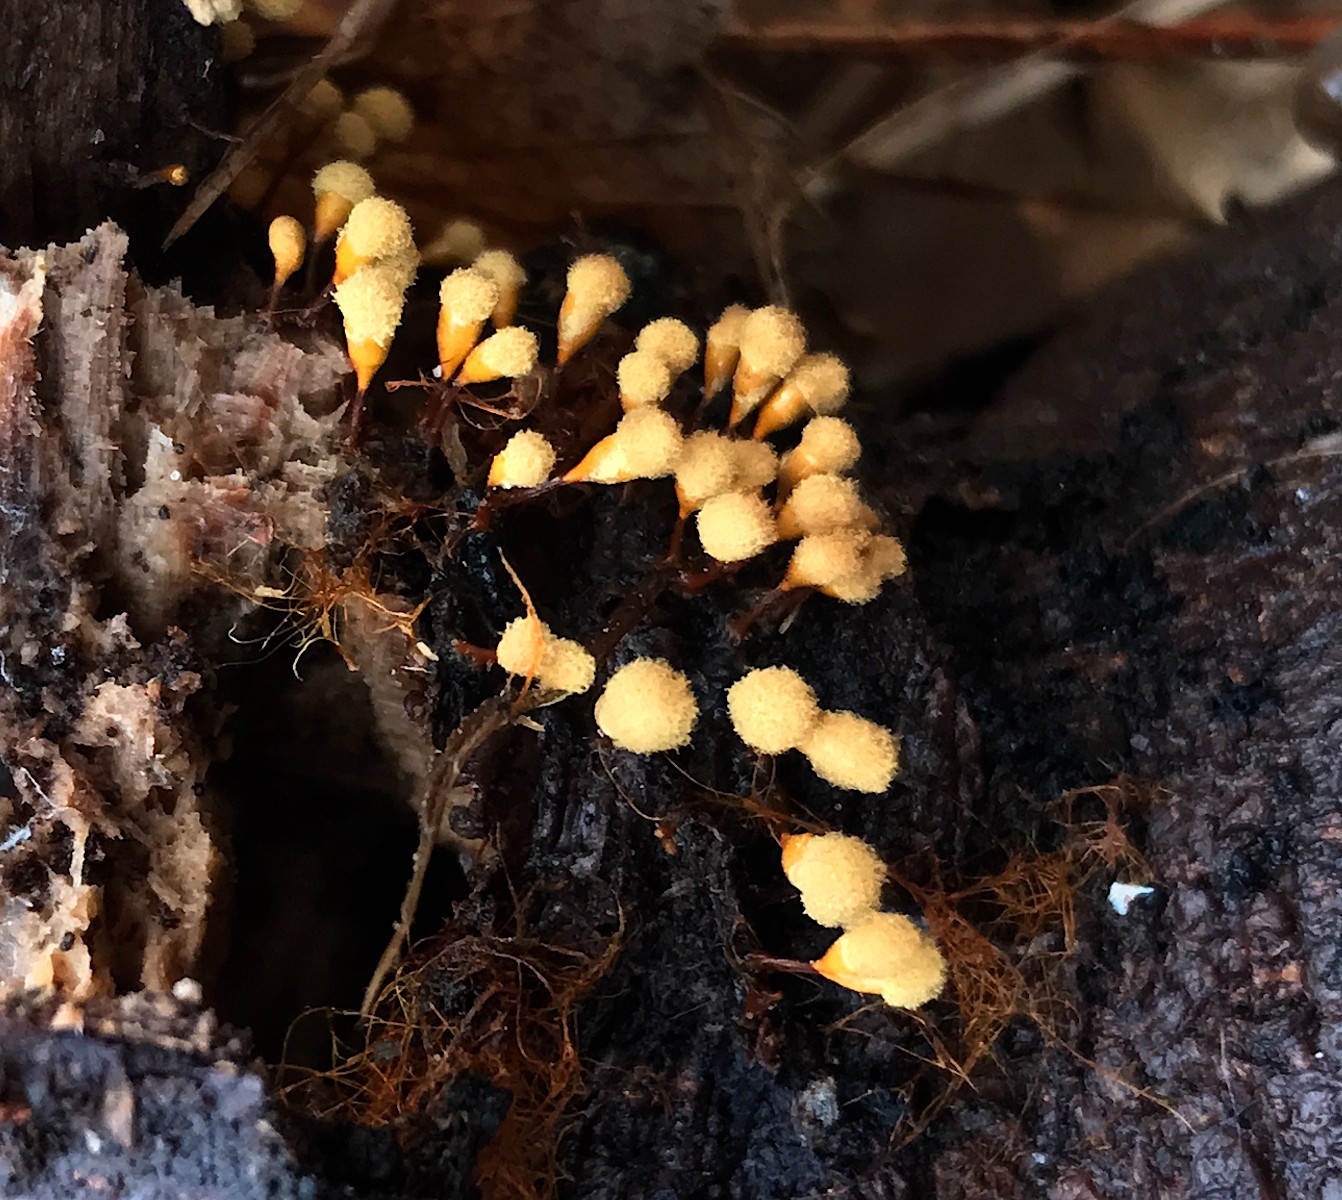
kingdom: Protozoa
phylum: Mycetozoa
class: Myxomycetes
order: Trichiales
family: Arcyriaceae
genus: Hemitrichia
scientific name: Hemitrichia clavata
